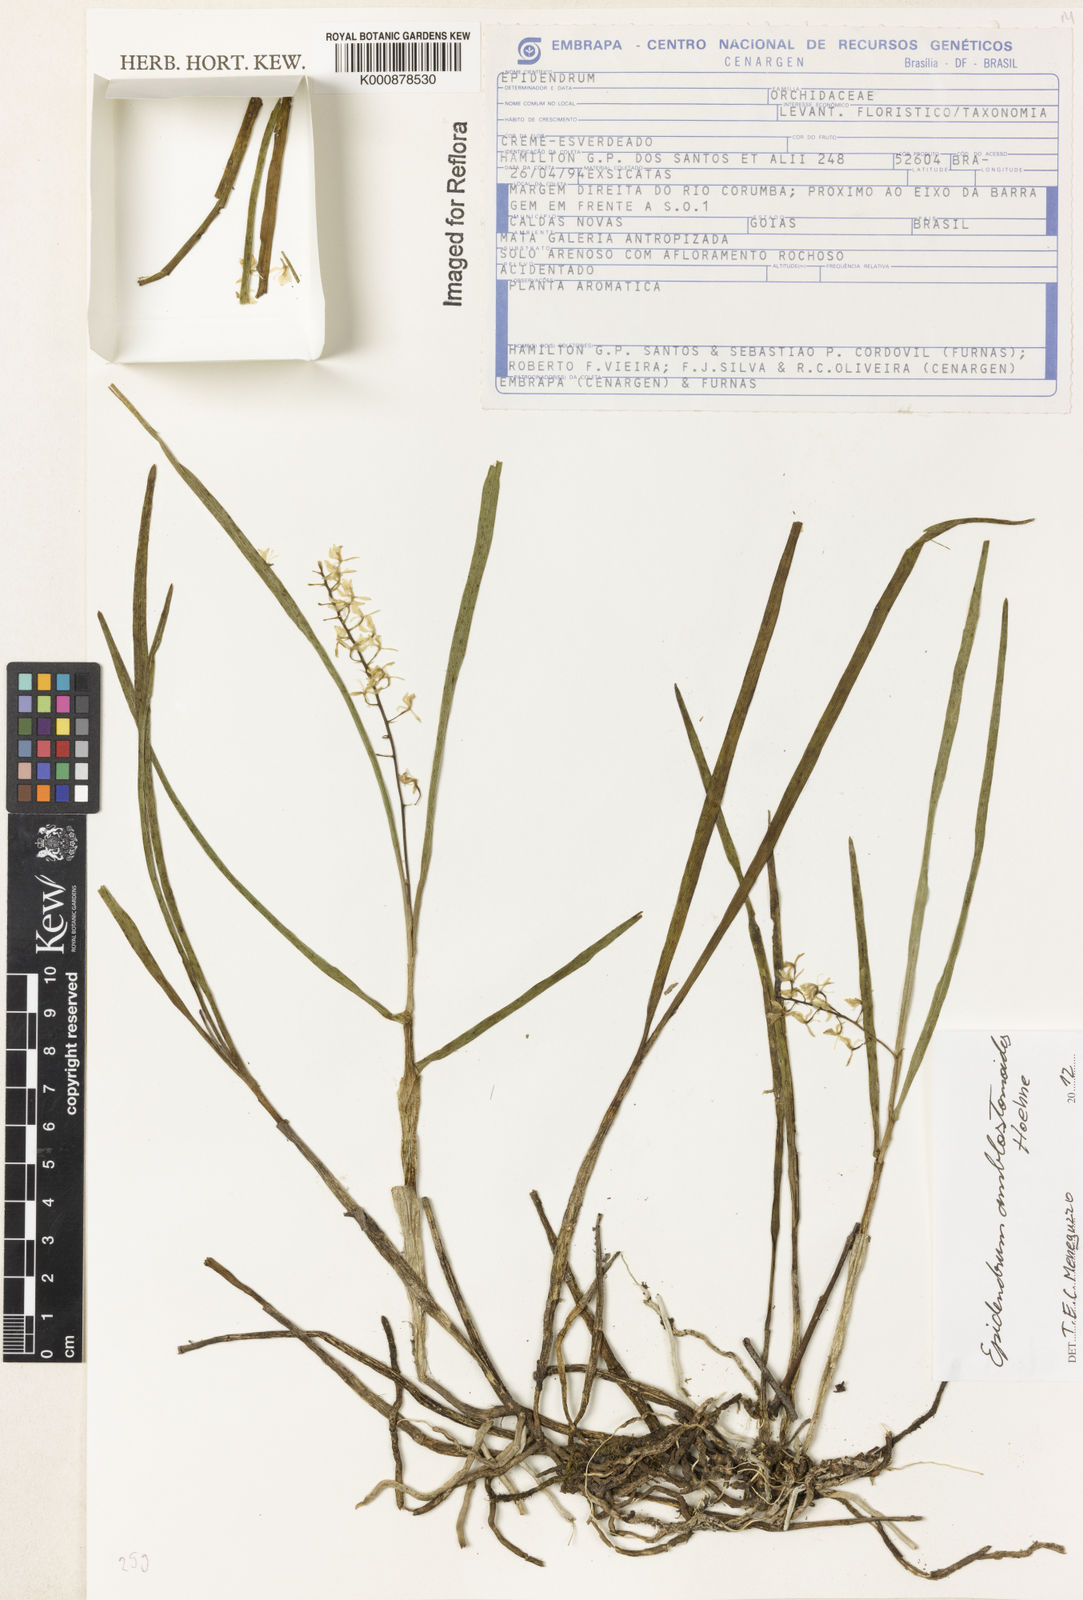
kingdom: Plantae
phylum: Tracheophyta
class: Liliopsida
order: Asparagales
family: Orchidaceae
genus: Epidendrum
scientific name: Epidendrum amblostomoides
